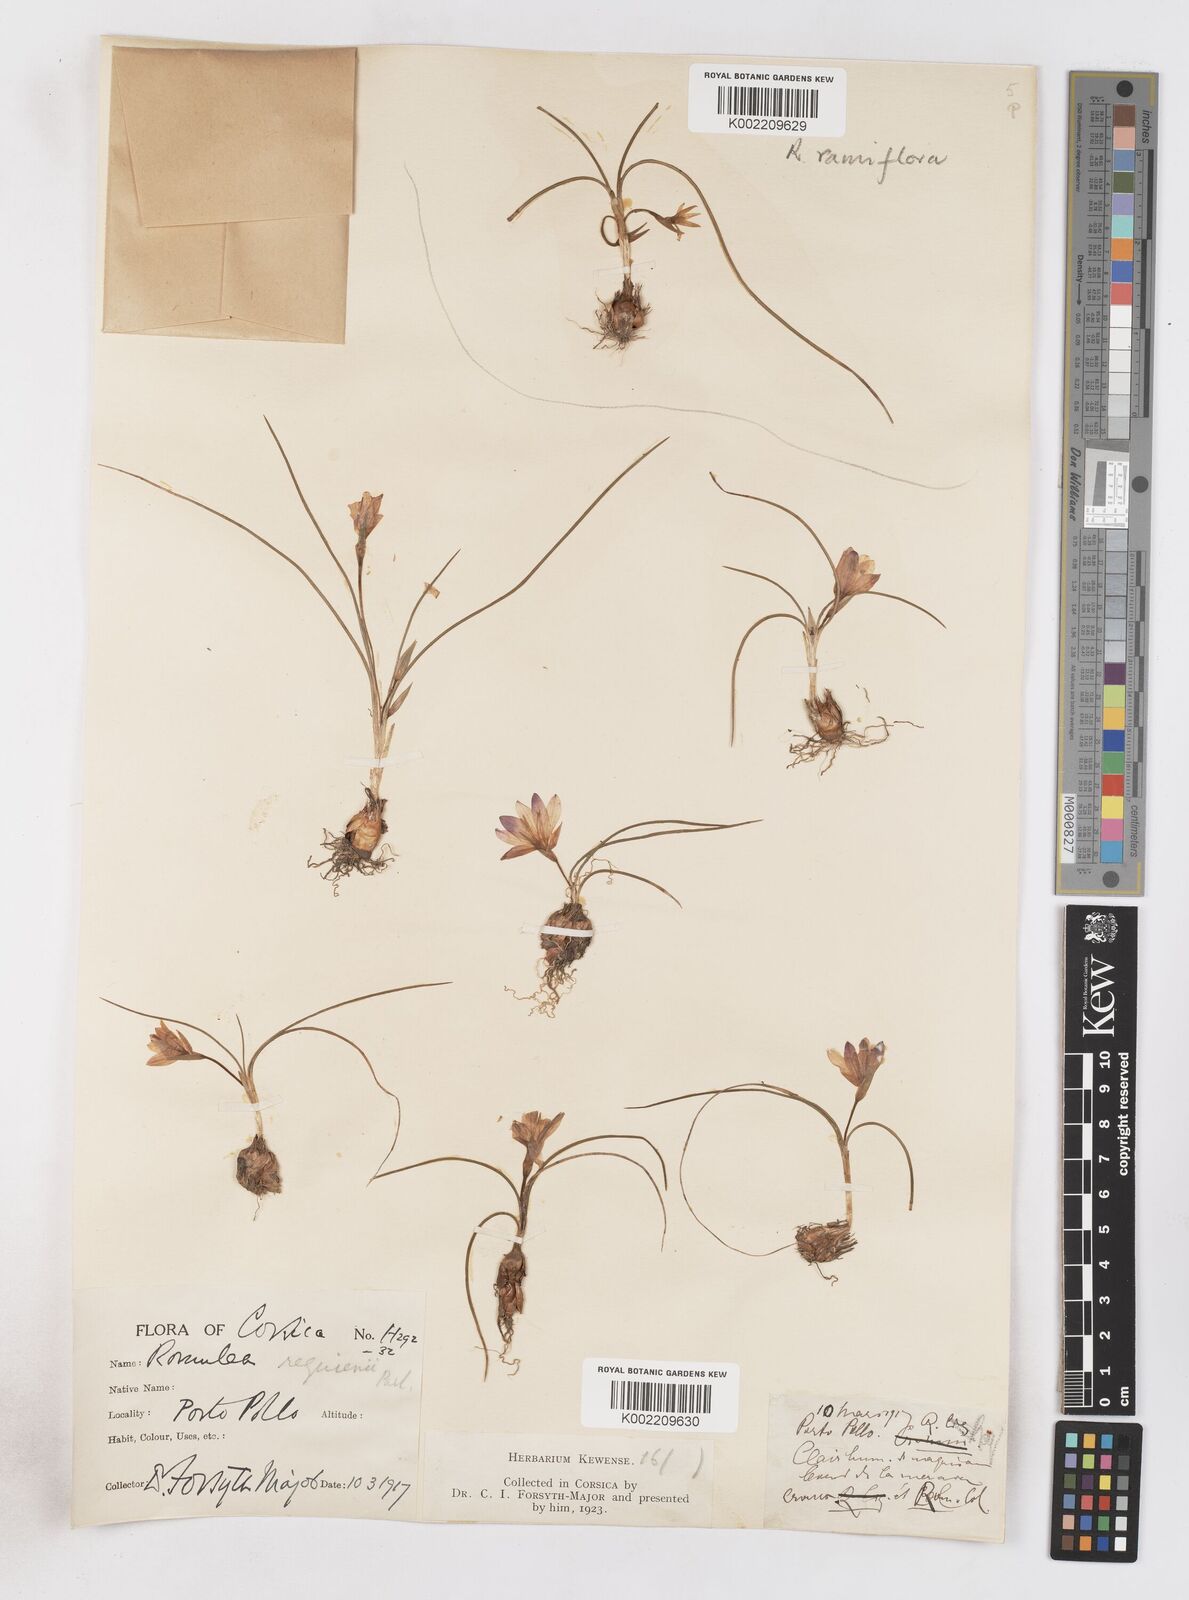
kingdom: Plantae
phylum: Tracheophyta
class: Liliopsida
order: Asparagales
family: Iridaceae
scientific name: Iridaceae
